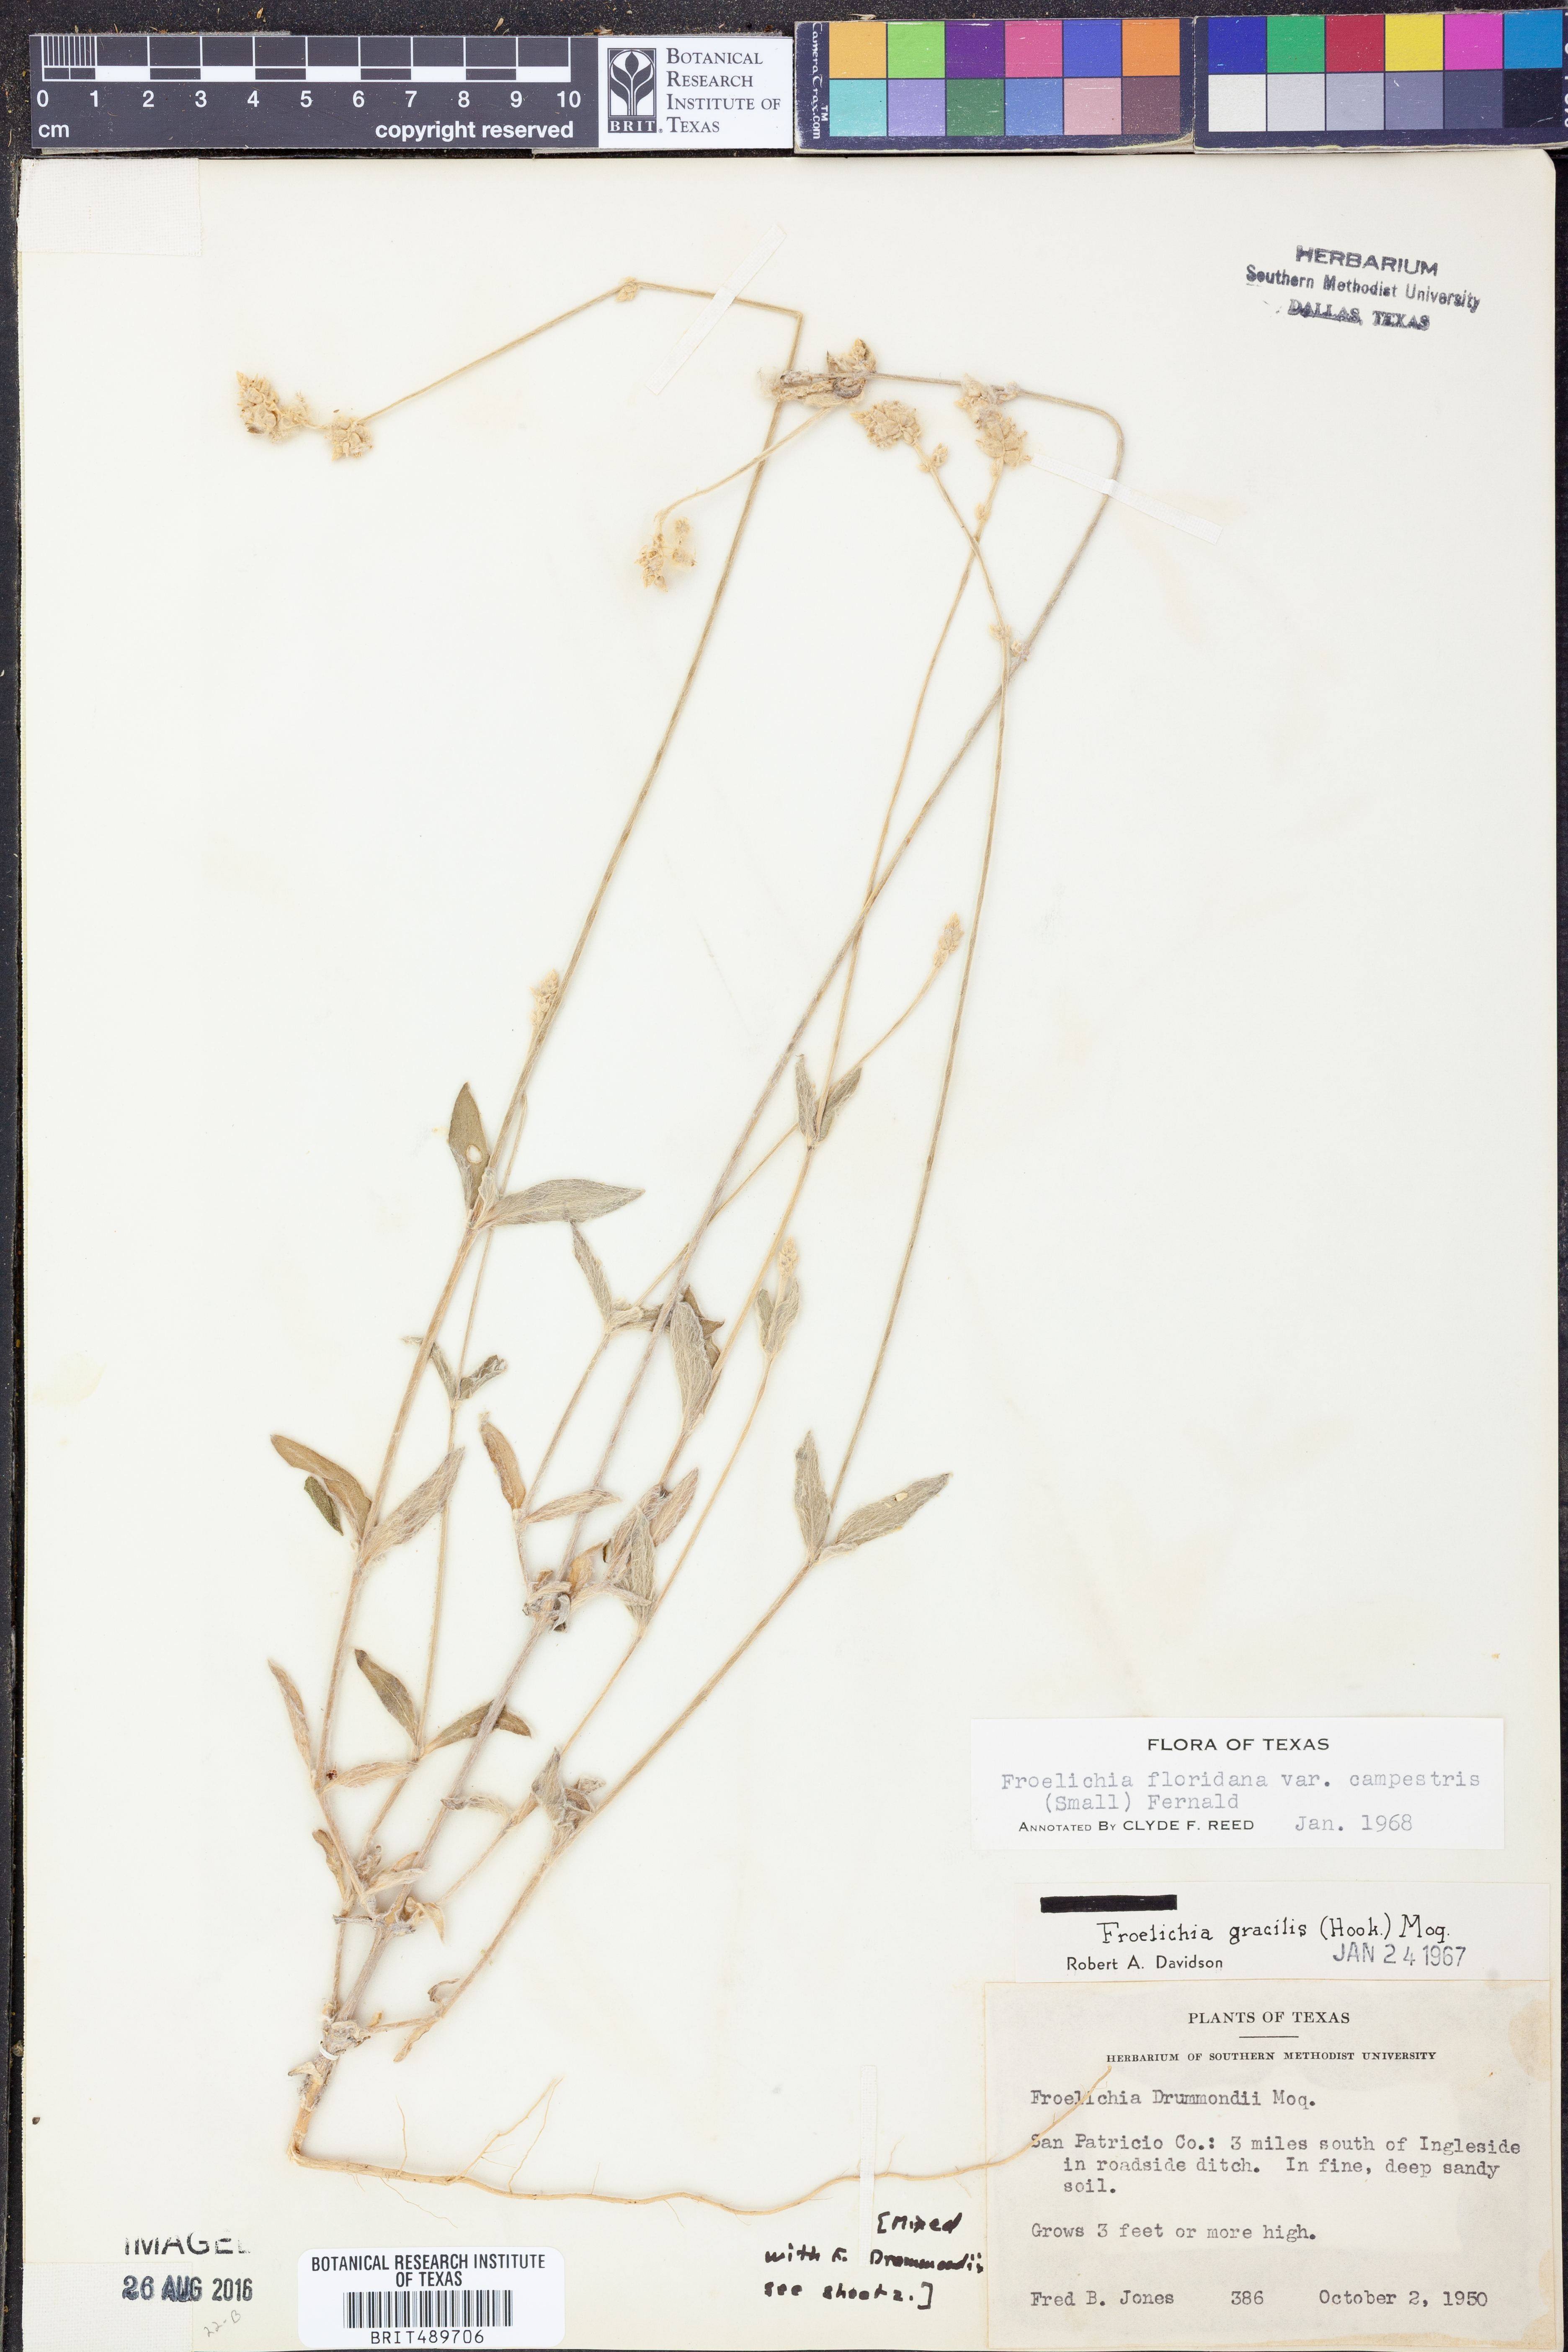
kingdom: Plantae
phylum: Tracheophyta
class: Magnoliopsida
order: Caryophyllales
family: Amaranthaceae
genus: Froelichia
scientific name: Froelichia floridana
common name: Florida snake-cotton
